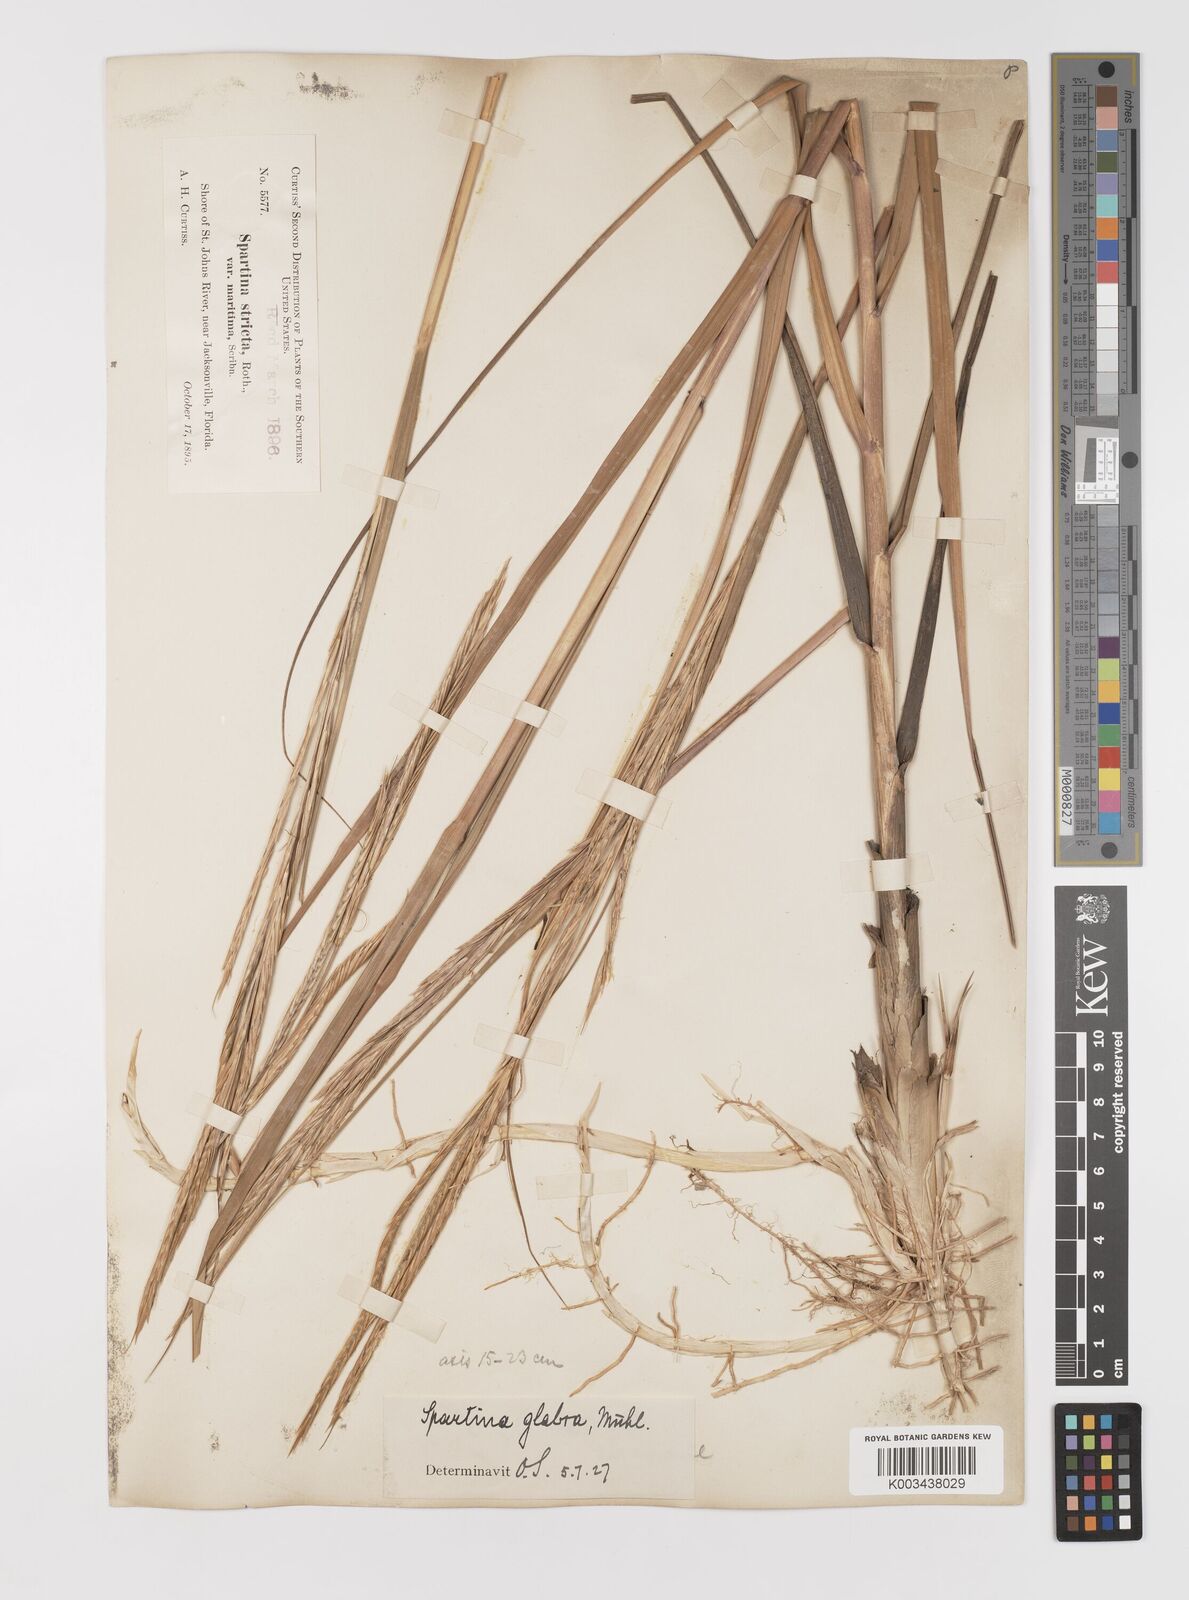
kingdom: Plantae
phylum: Tracheophyta
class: Liliopsida
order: Poales
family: Poaceae
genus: Sporobolus
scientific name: Sporobolus alterniflorus
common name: Atlantic cordgrass
